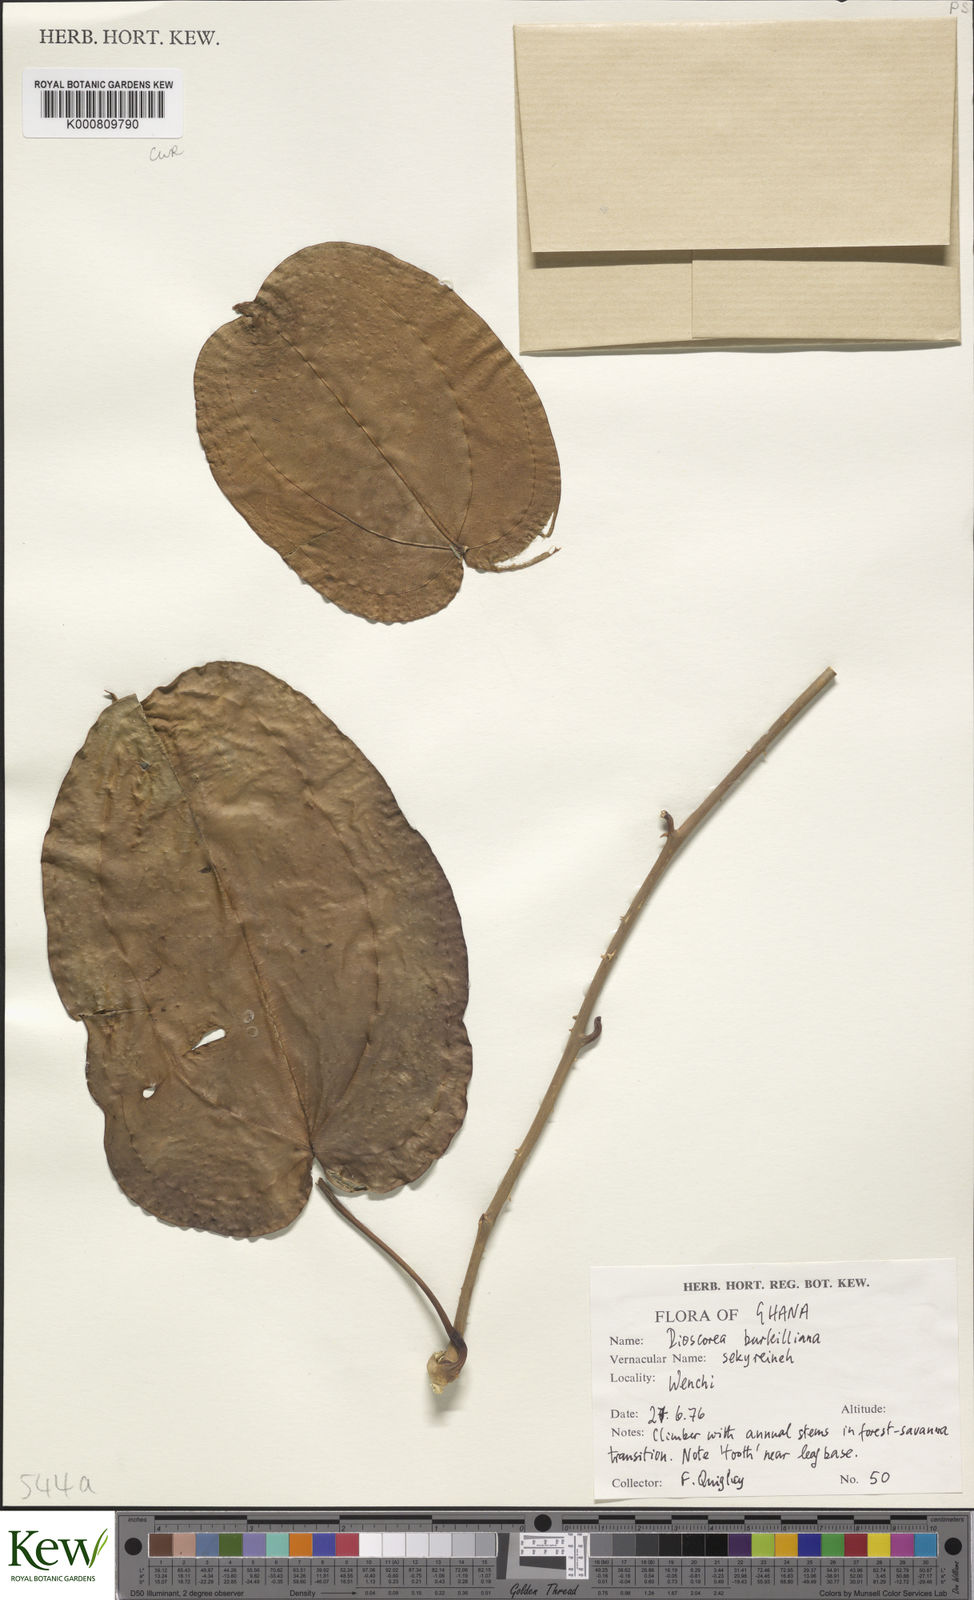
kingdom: Plantae
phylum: Tracheophyta
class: Liliopsida
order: Dioscoreales
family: Dioscoreaceae
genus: Dioscorea
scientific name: Dioscorea
